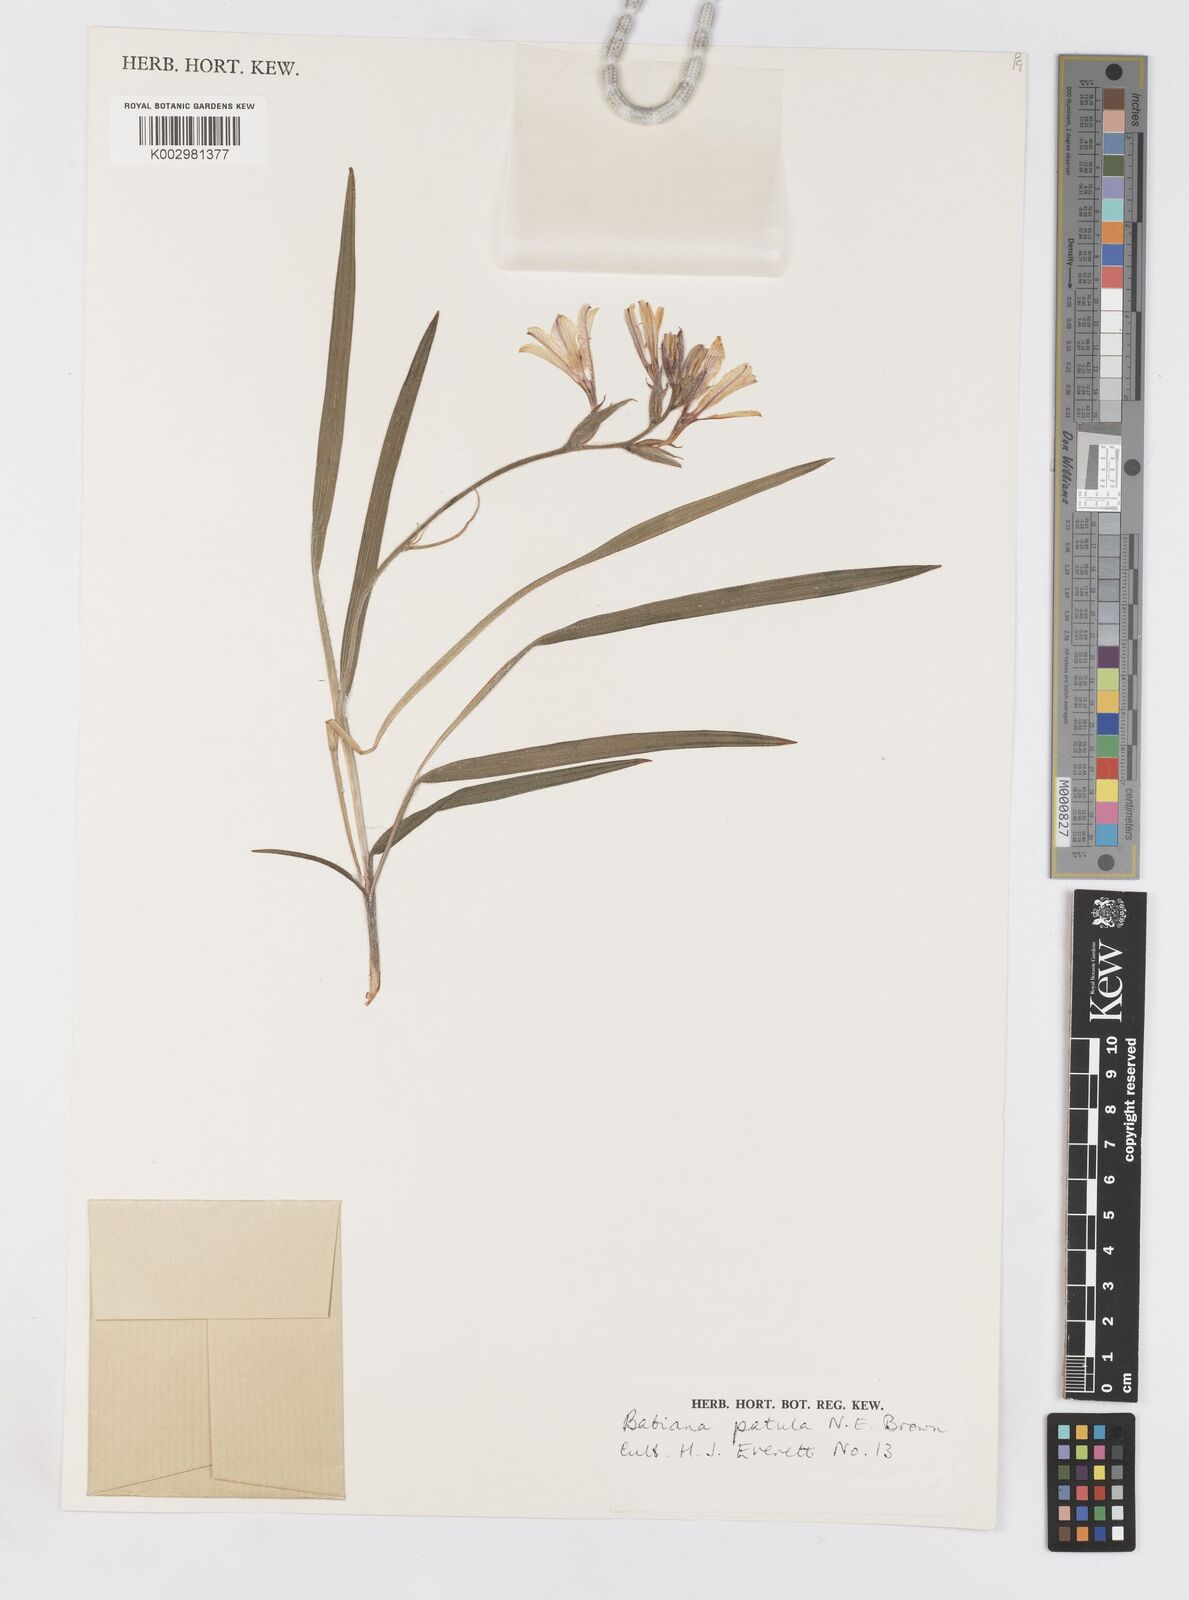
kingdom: Plantae
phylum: Tracheophyta
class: Liliopsida
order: Asparagales
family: Iridaceae
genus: Babiana
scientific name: Babiana patula
